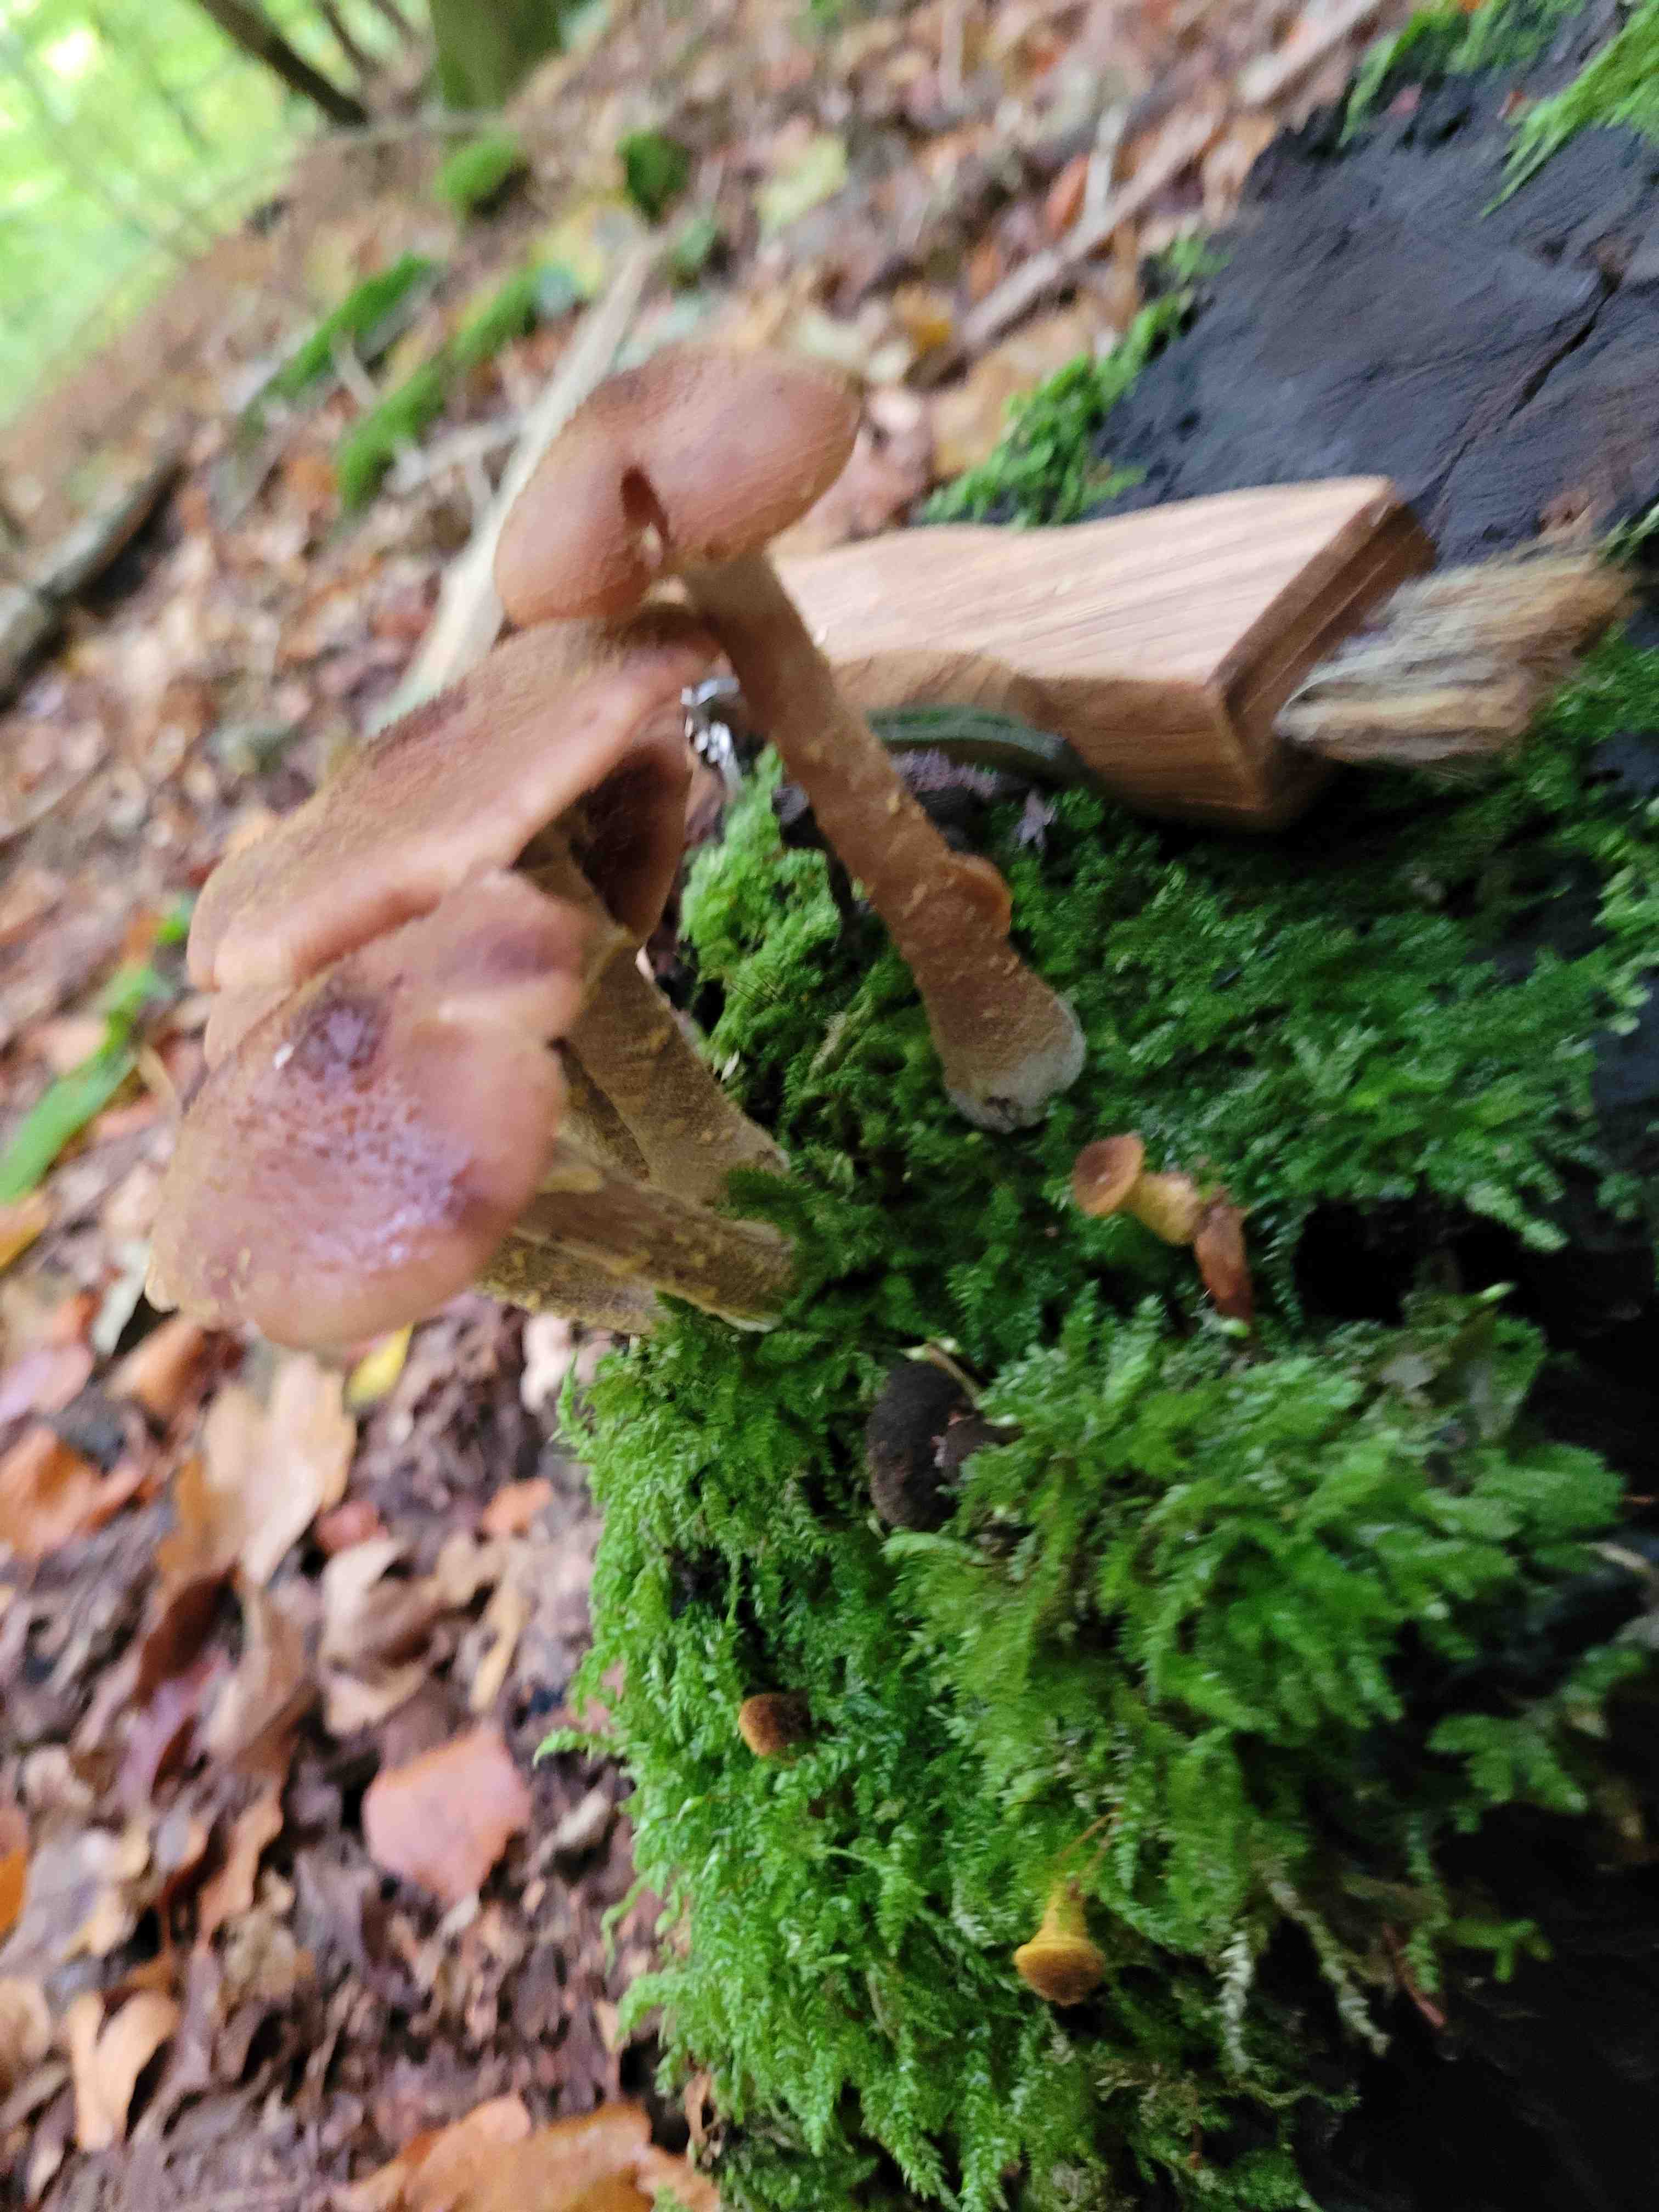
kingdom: Fungi
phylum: Basidiomycota
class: Agaricomycetes
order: Agaricales
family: Physalacriaceae
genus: Armillaria
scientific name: Armillaria lutea
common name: køllestokket honningsvamp
